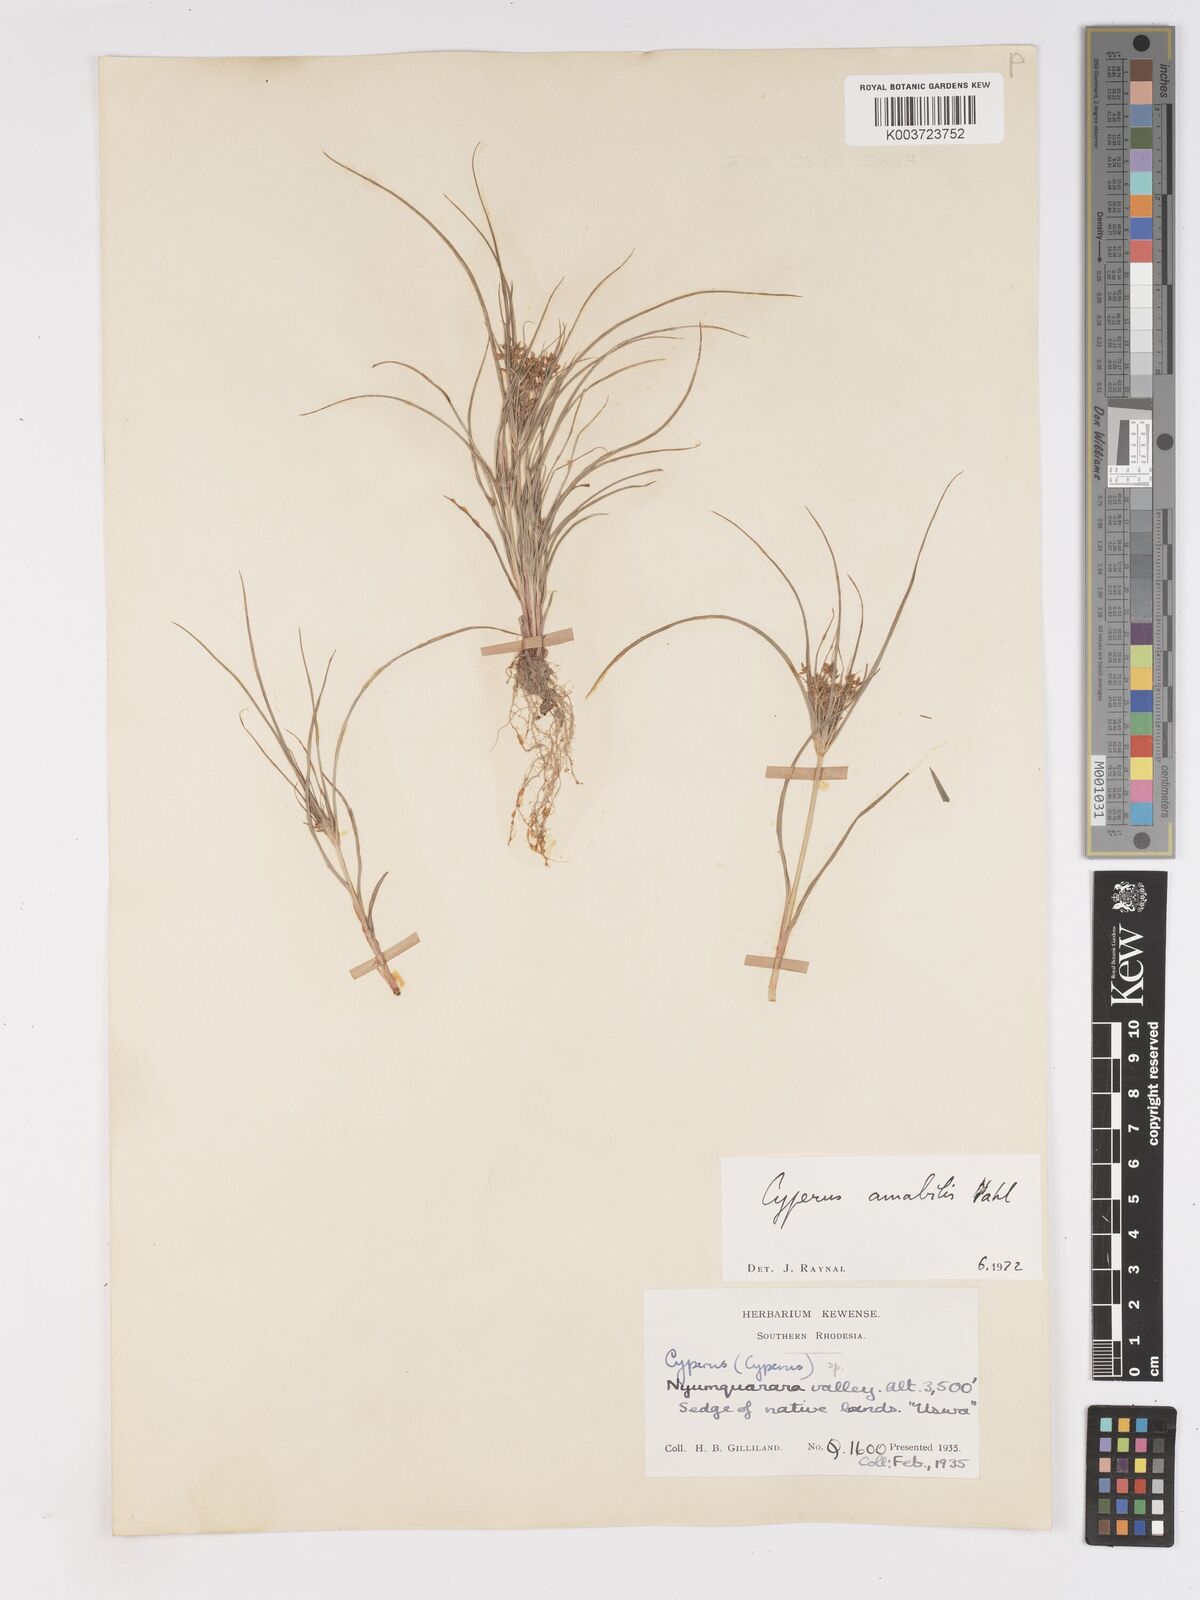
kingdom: Plantae
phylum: Tracheophyta
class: Liliopsida
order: Poales
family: Cyperaceae
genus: Cyperus
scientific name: Cyperus amabilis
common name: Foothill flat sedge
